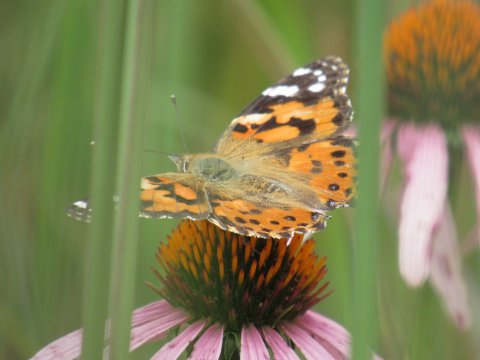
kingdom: Animalia
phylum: Arthropoda
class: Insecta
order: Lepidoptera
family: Nymphalidae
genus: Vanessa
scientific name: Vanessa cardui
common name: Painted Lady
